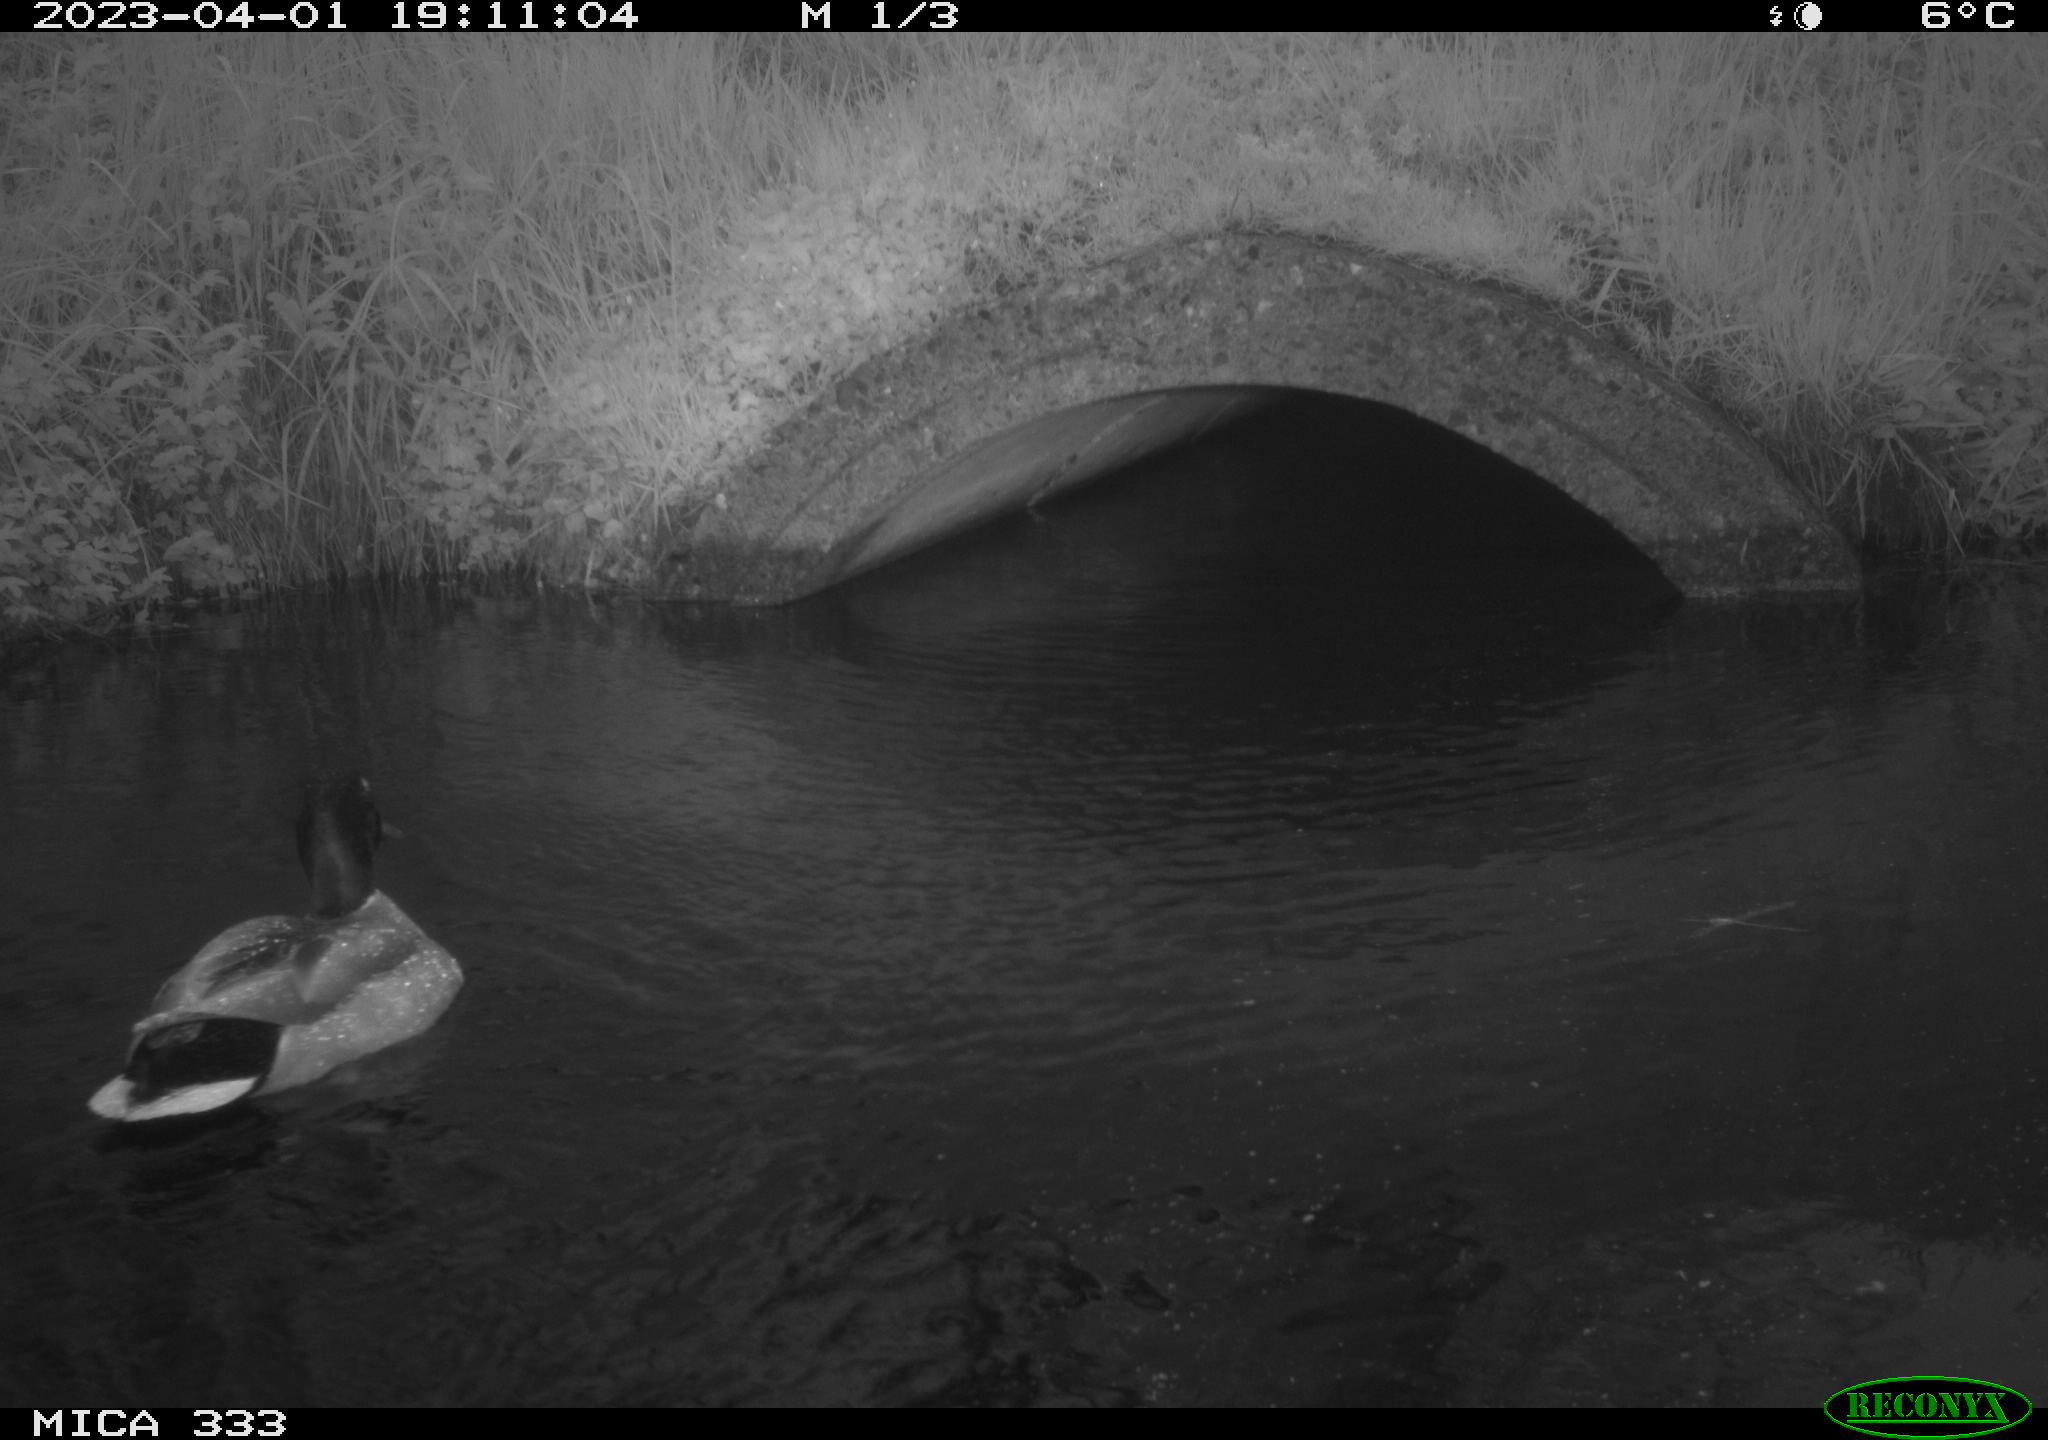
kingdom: Animalia
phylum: Chordata
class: Aves
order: Anseriformes
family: Anatidae
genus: Anas
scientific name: Anas
